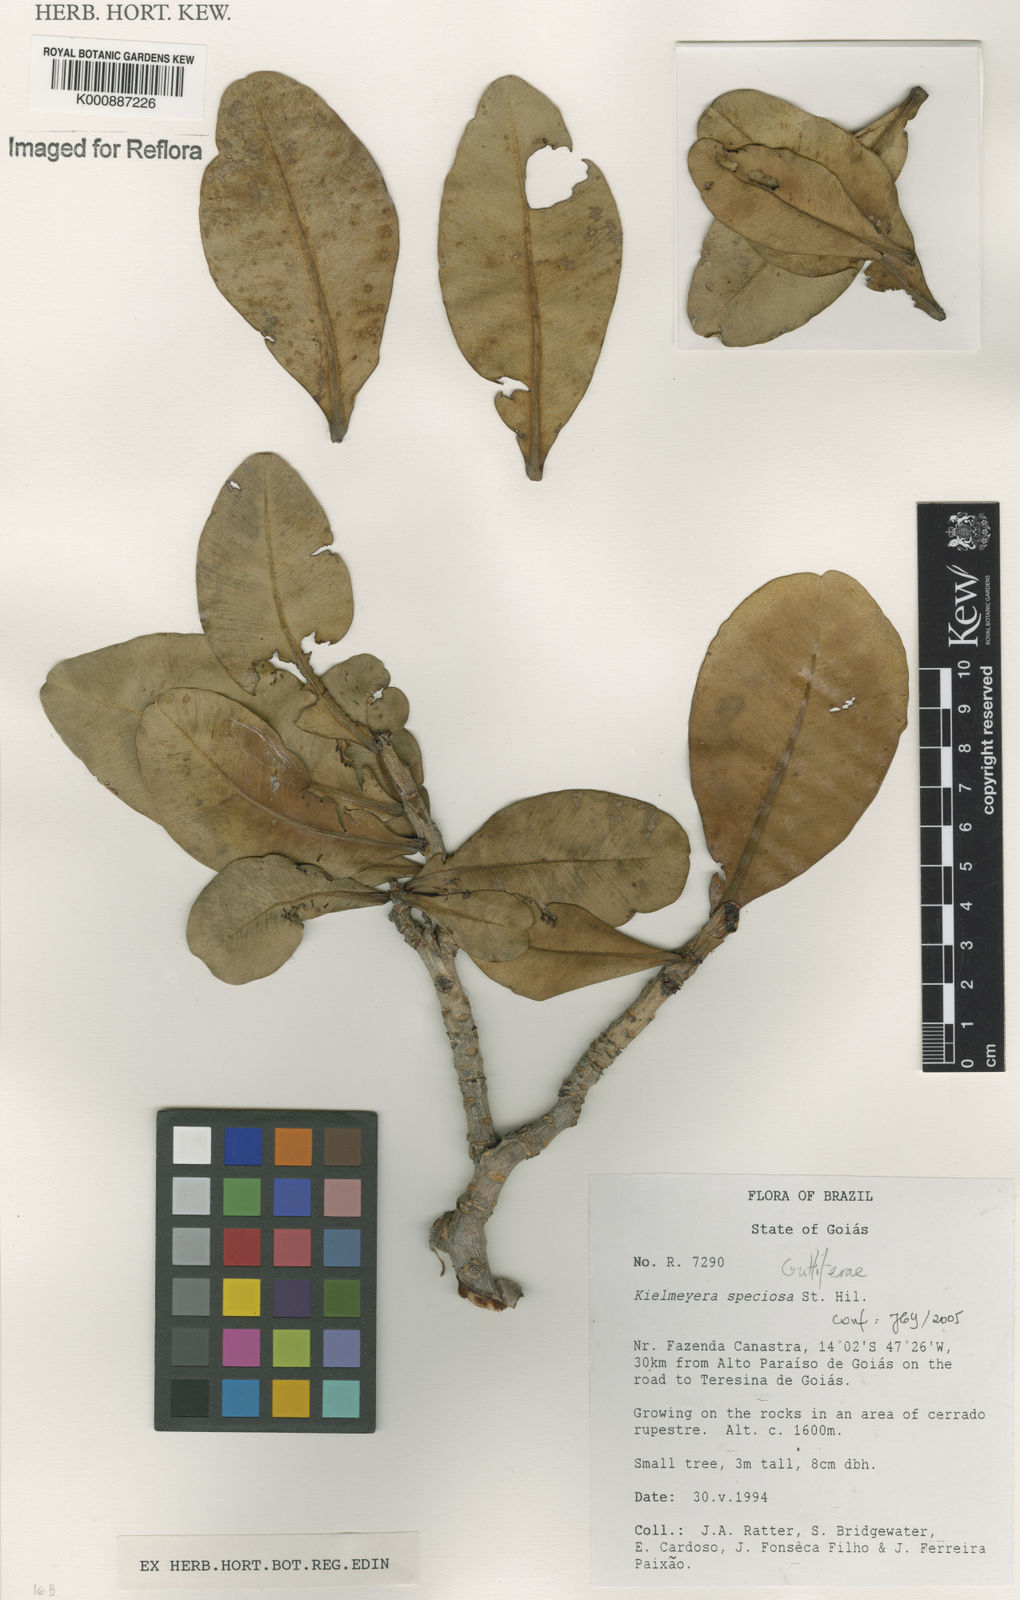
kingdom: Plantae
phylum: Tracheophyta
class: Magnoliopsida
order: Malpighiales
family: Calophyllaceae
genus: Kielmeyera
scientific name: Kielmeyera speciosa
